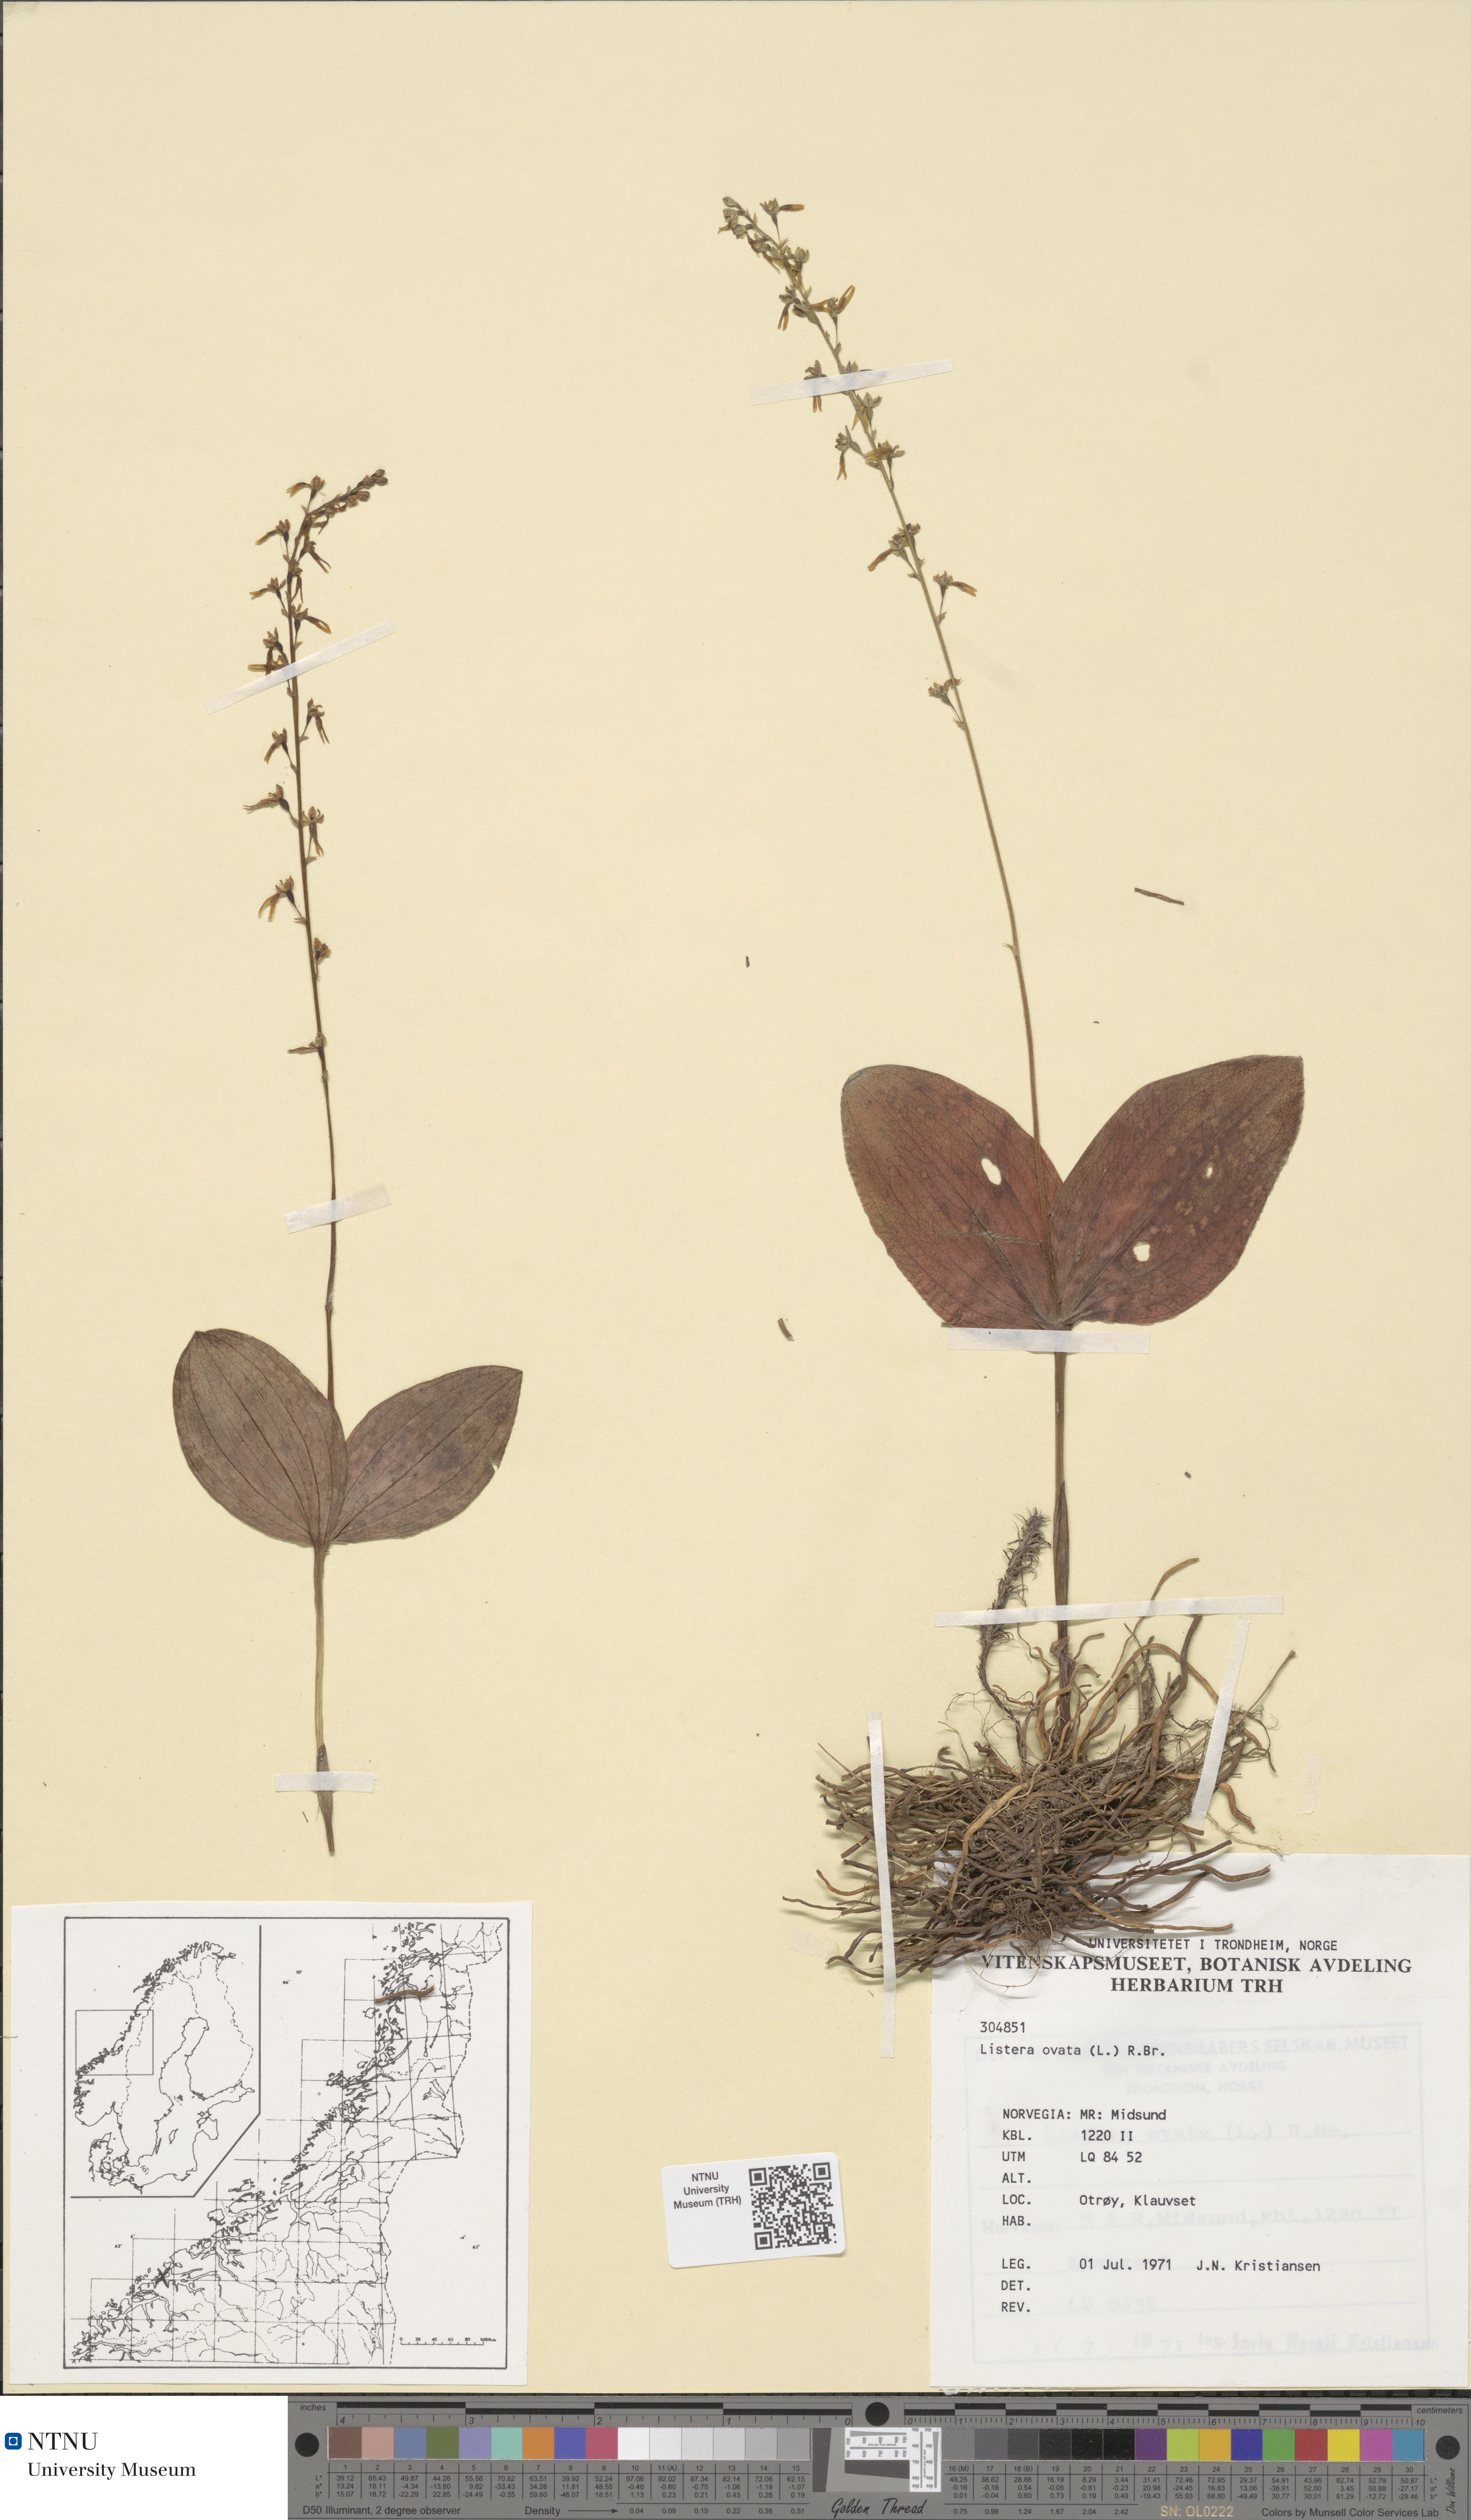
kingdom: Plantae
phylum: Tracheophyta
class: Liliopsida
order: Asparagales
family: Orchidaceae
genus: Neottia
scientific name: Neottia ovata
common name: Common twayblade
